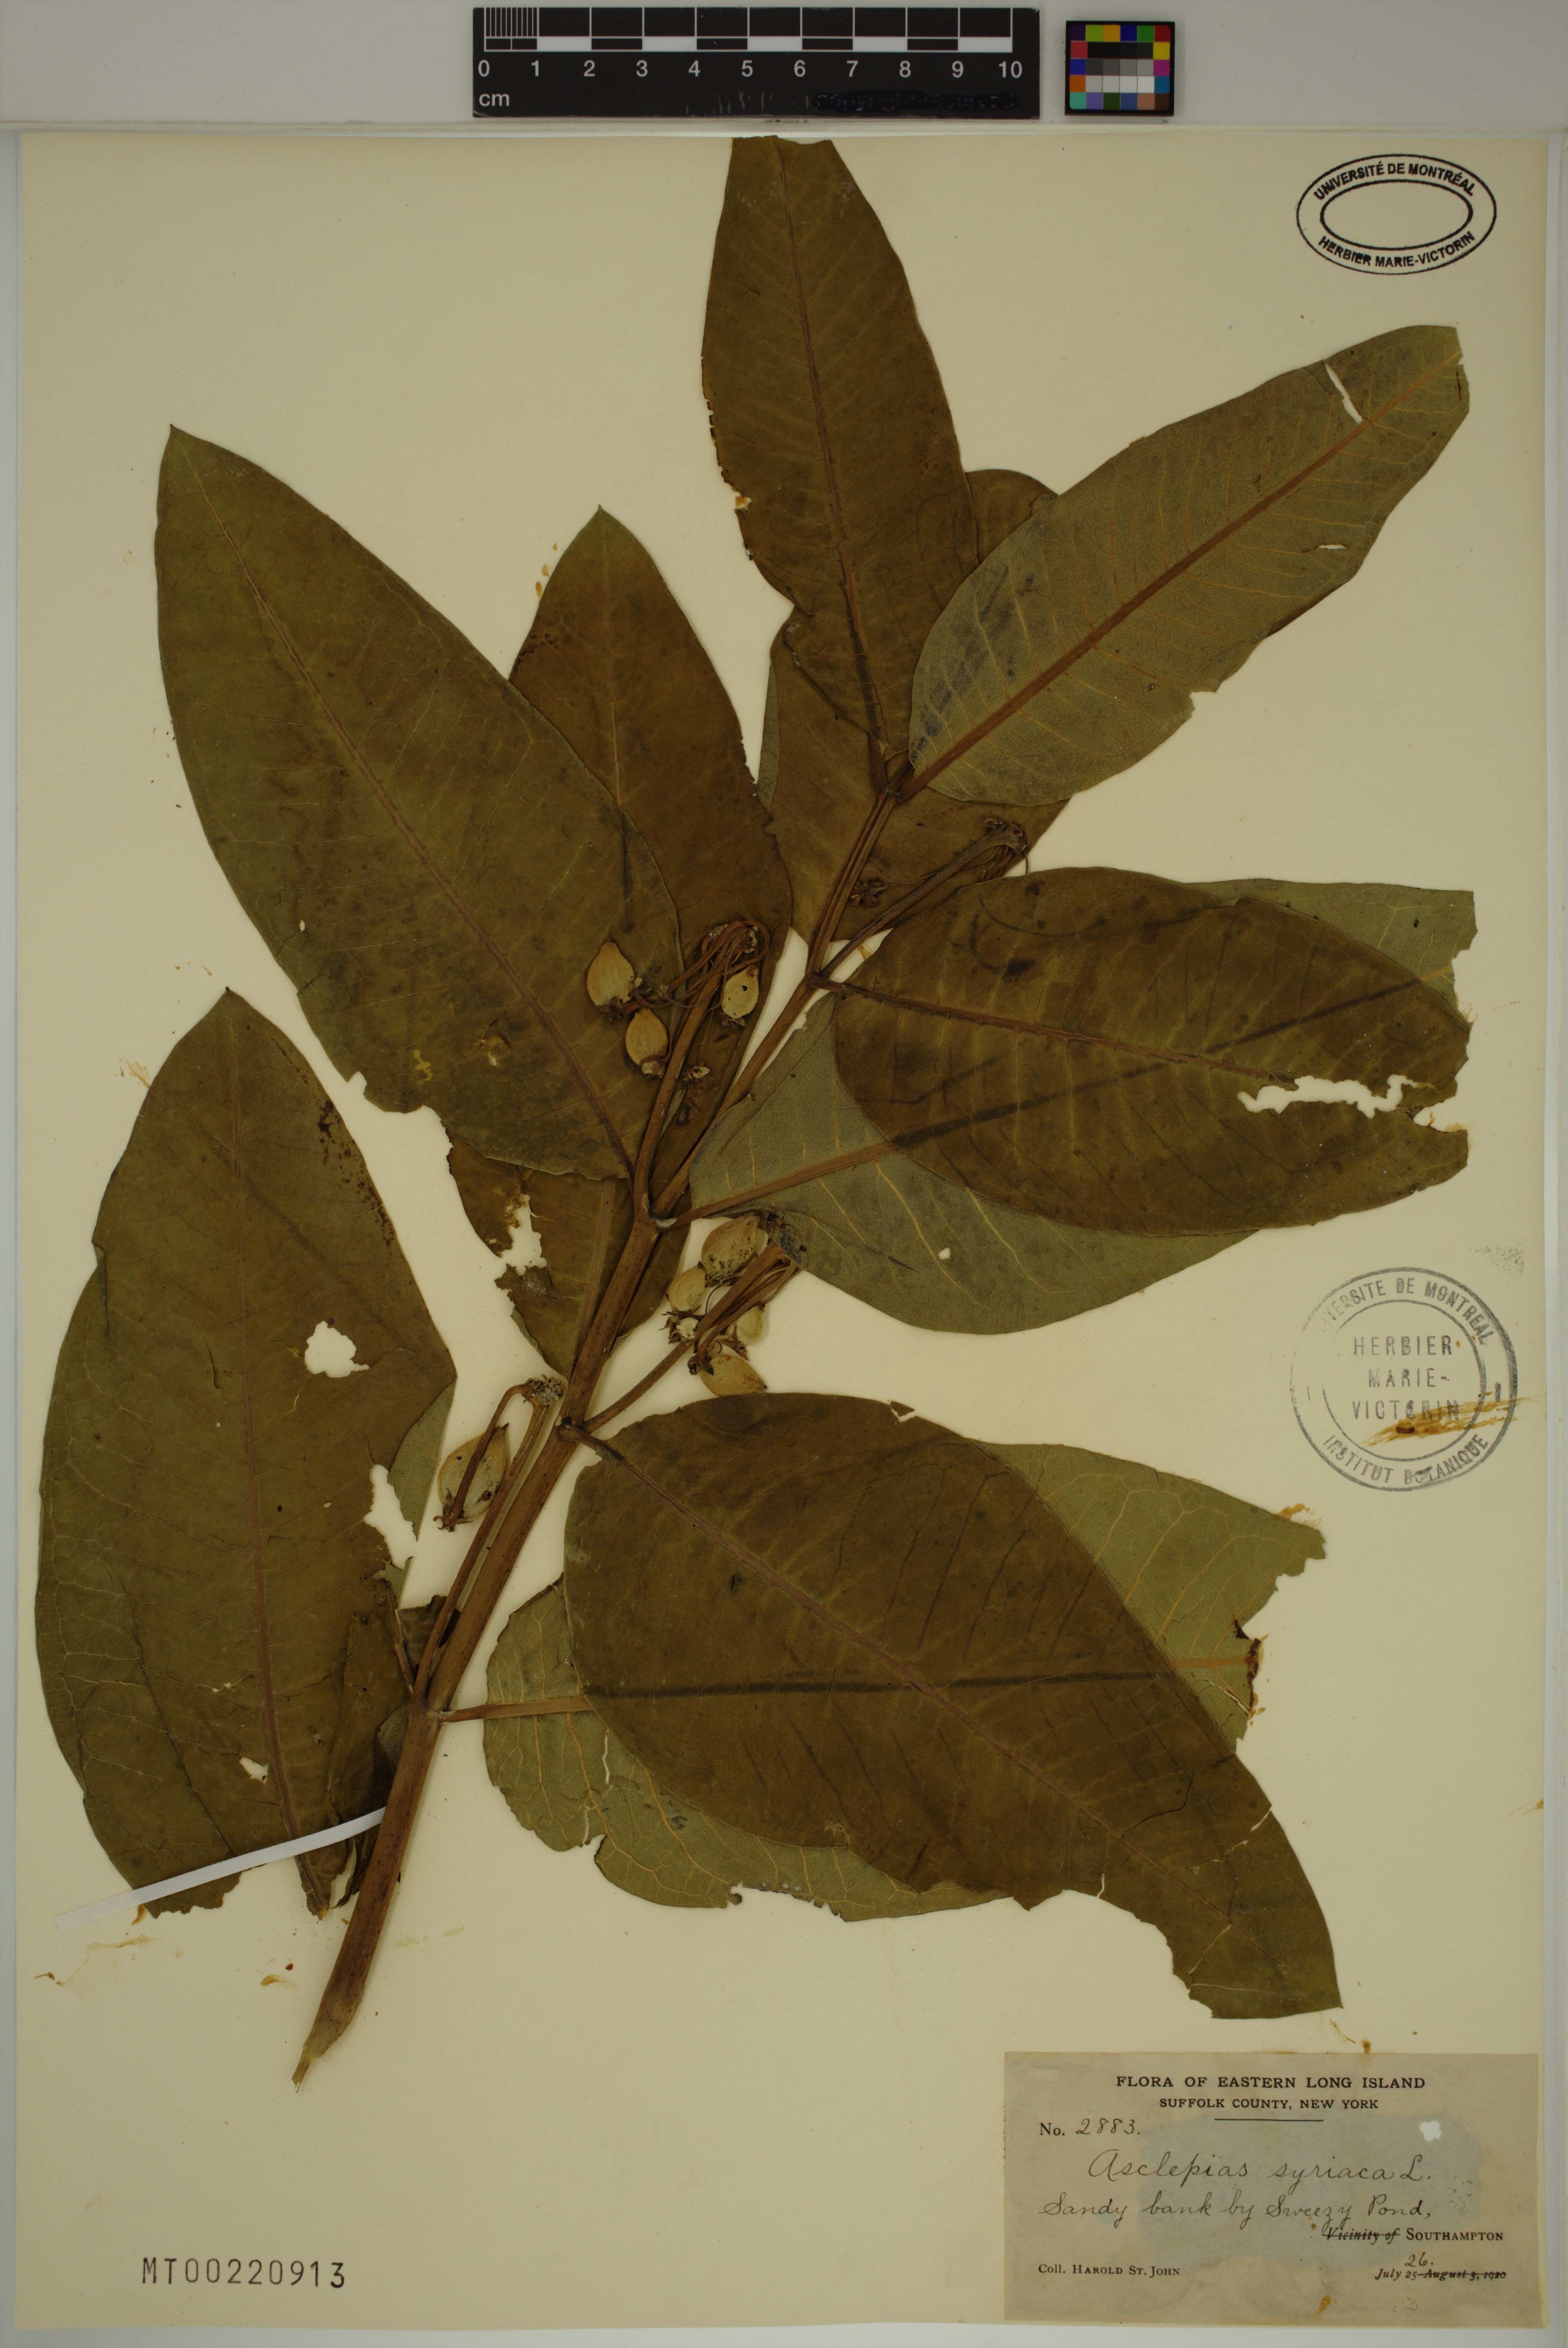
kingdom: Plantae
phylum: Tracheophyta
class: Magnoliopsida
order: Gentianales
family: Apocynaceae
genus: Asclepias
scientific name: Asclepias syriaca
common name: Common milkweed
